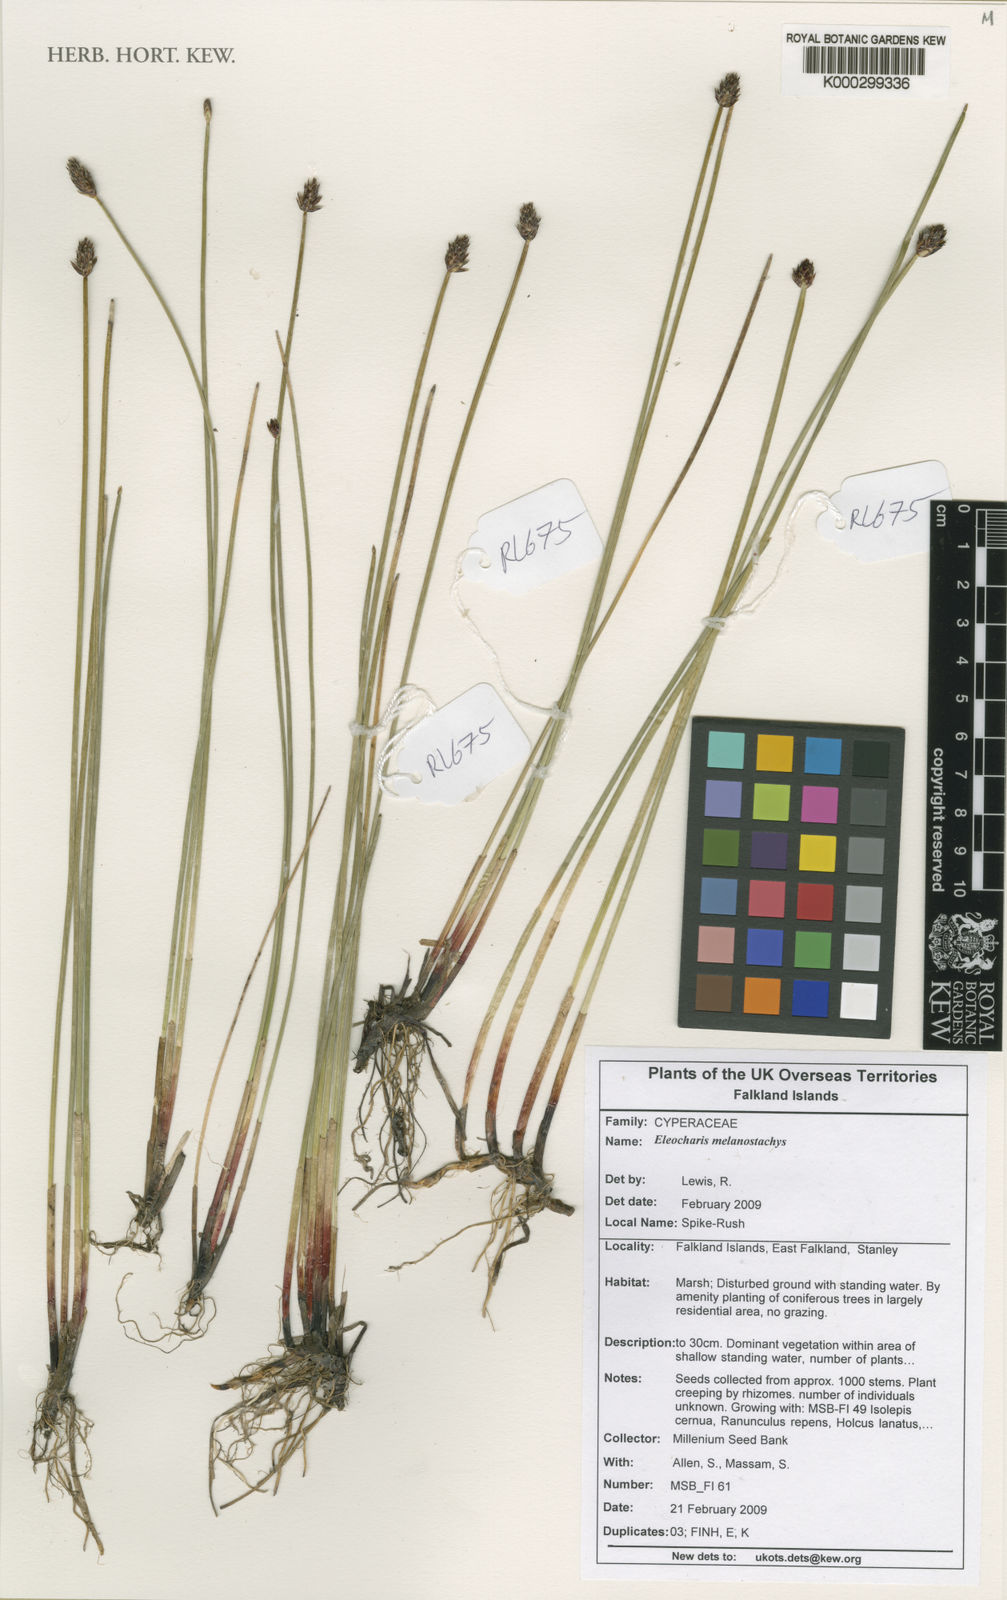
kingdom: Plantae
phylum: Tracheophyta
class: Liliopsida
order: Poales
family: Cyperaceae
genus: Eleocharis
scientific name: Eleocharis melanostachys
